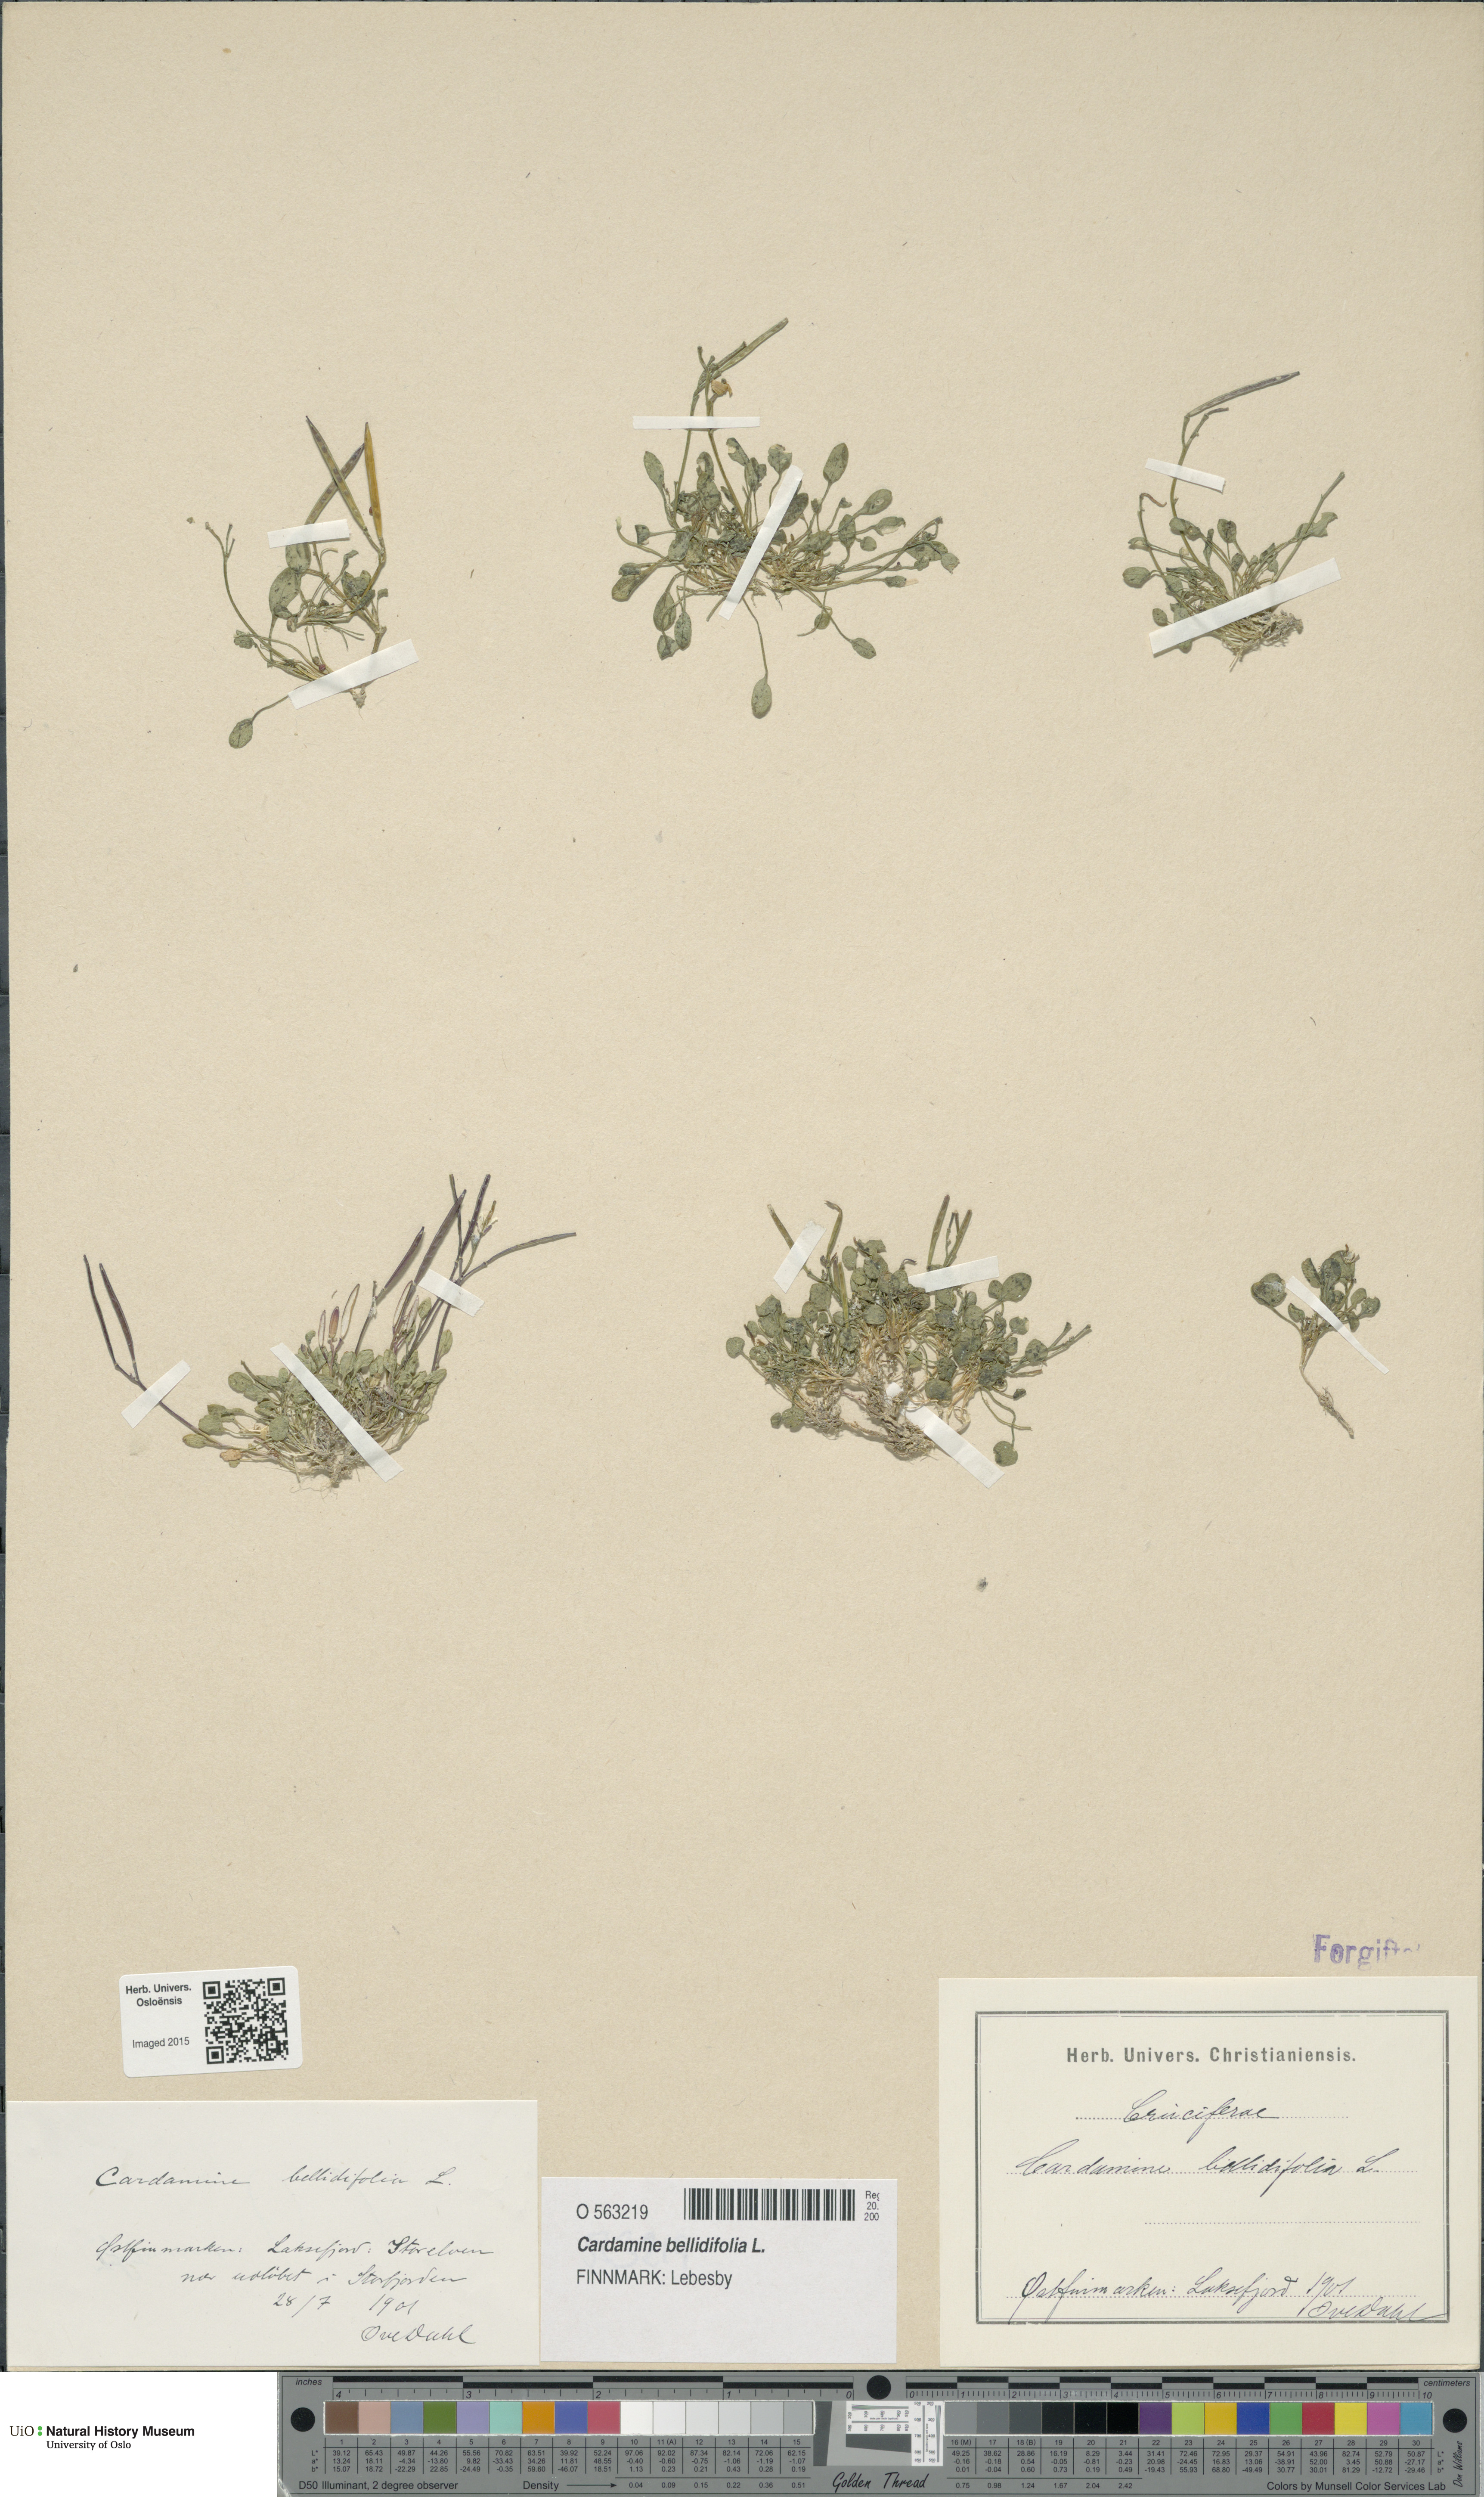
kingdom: Plantae
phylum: Tracheophyta
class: Magnoliopsida
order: Brassicales
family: Brassicaceae
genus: Cardamine
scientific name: Cardamine bellidifolia
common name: Alpine bittercress
